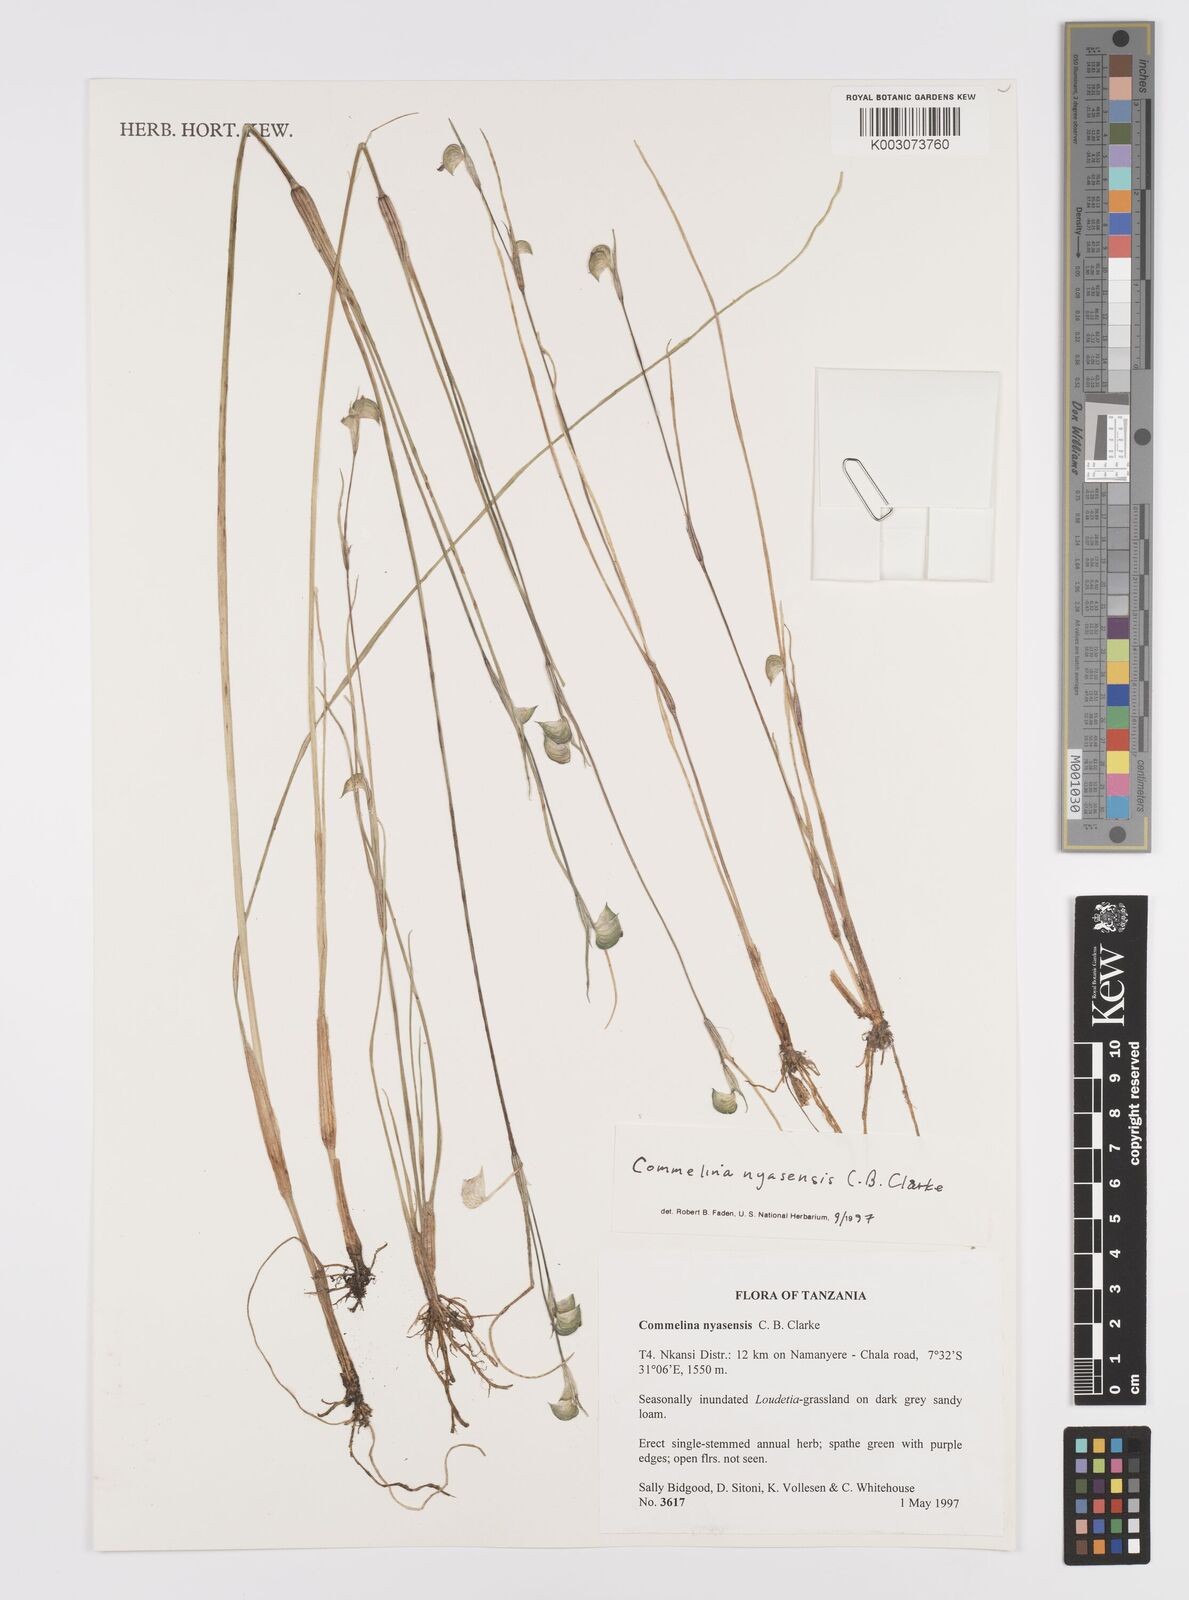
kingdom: Plantae
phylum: Tracheophyta
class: Liliopsida
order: Commelinales
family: Commelinaceae
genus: Commelina
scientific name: Commelina nyasensis
